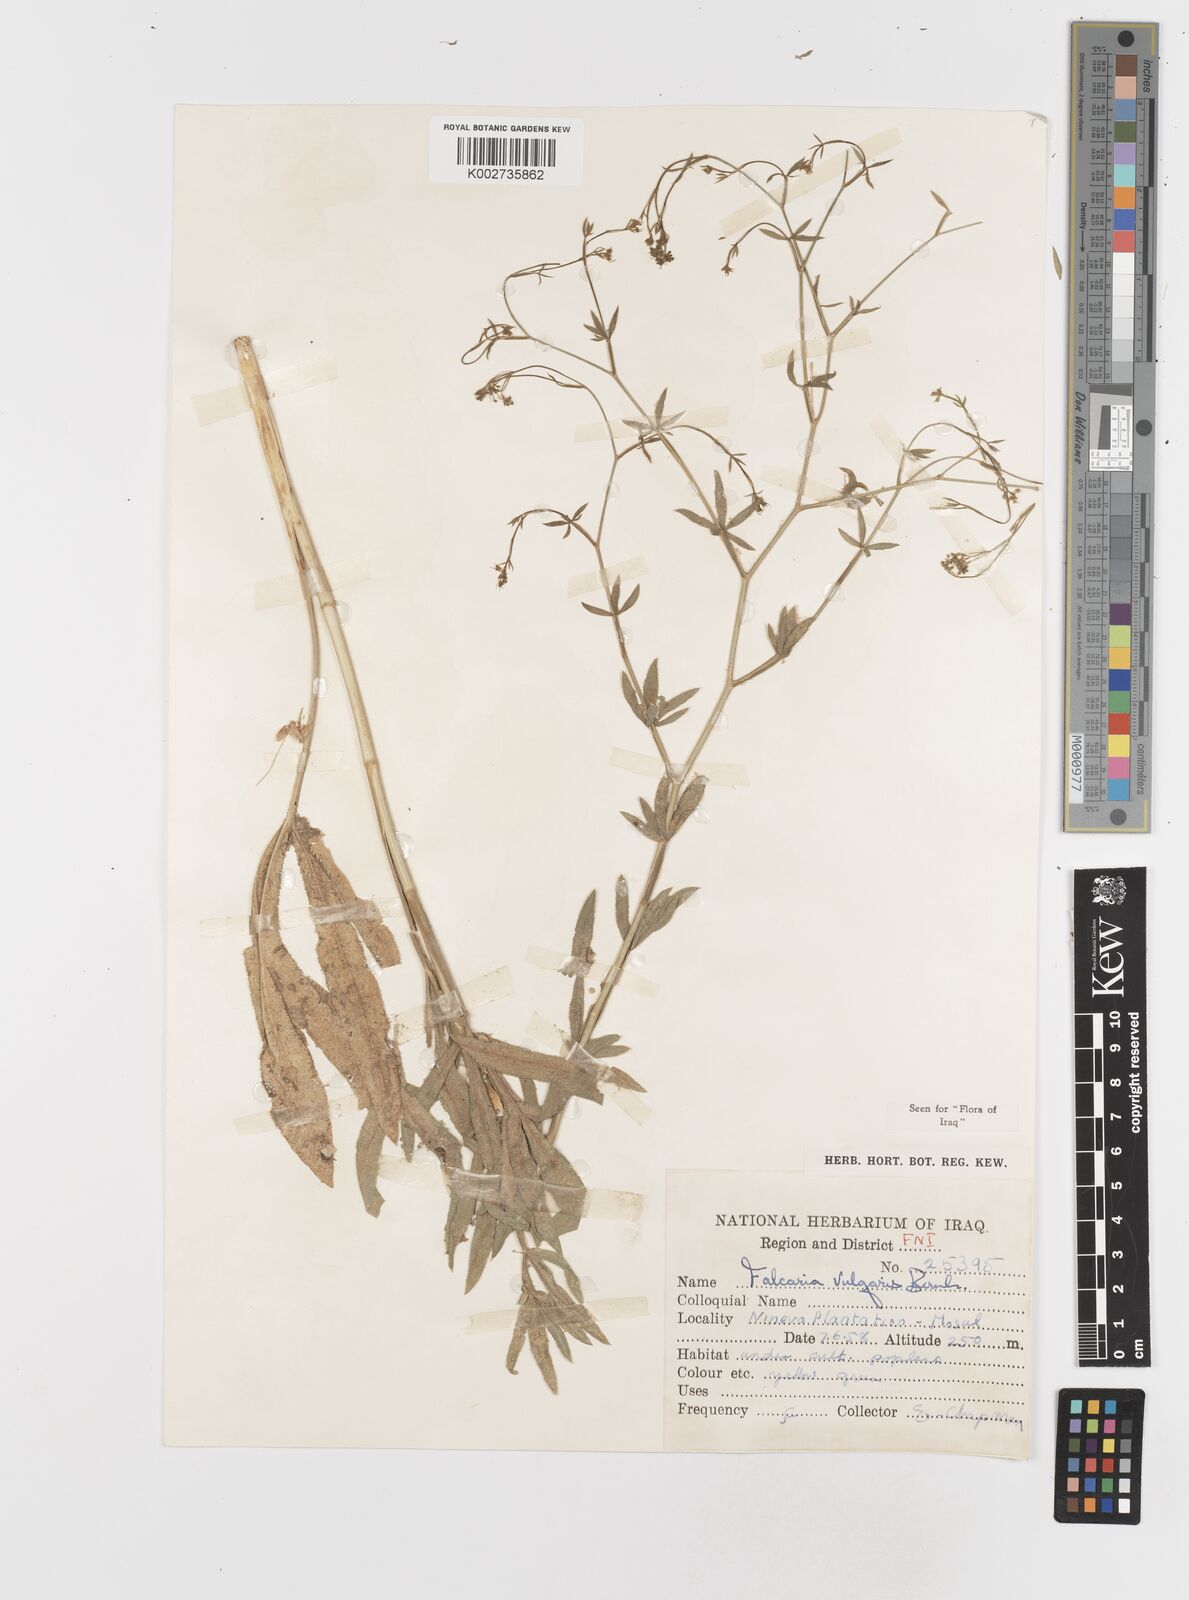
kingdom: Plantae
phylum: Tracheophyta
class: Magnoliopsida
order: Apiales
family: Apiaceae
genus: Falcaria
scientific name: Falcaria vulgaris
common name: Longleaf
